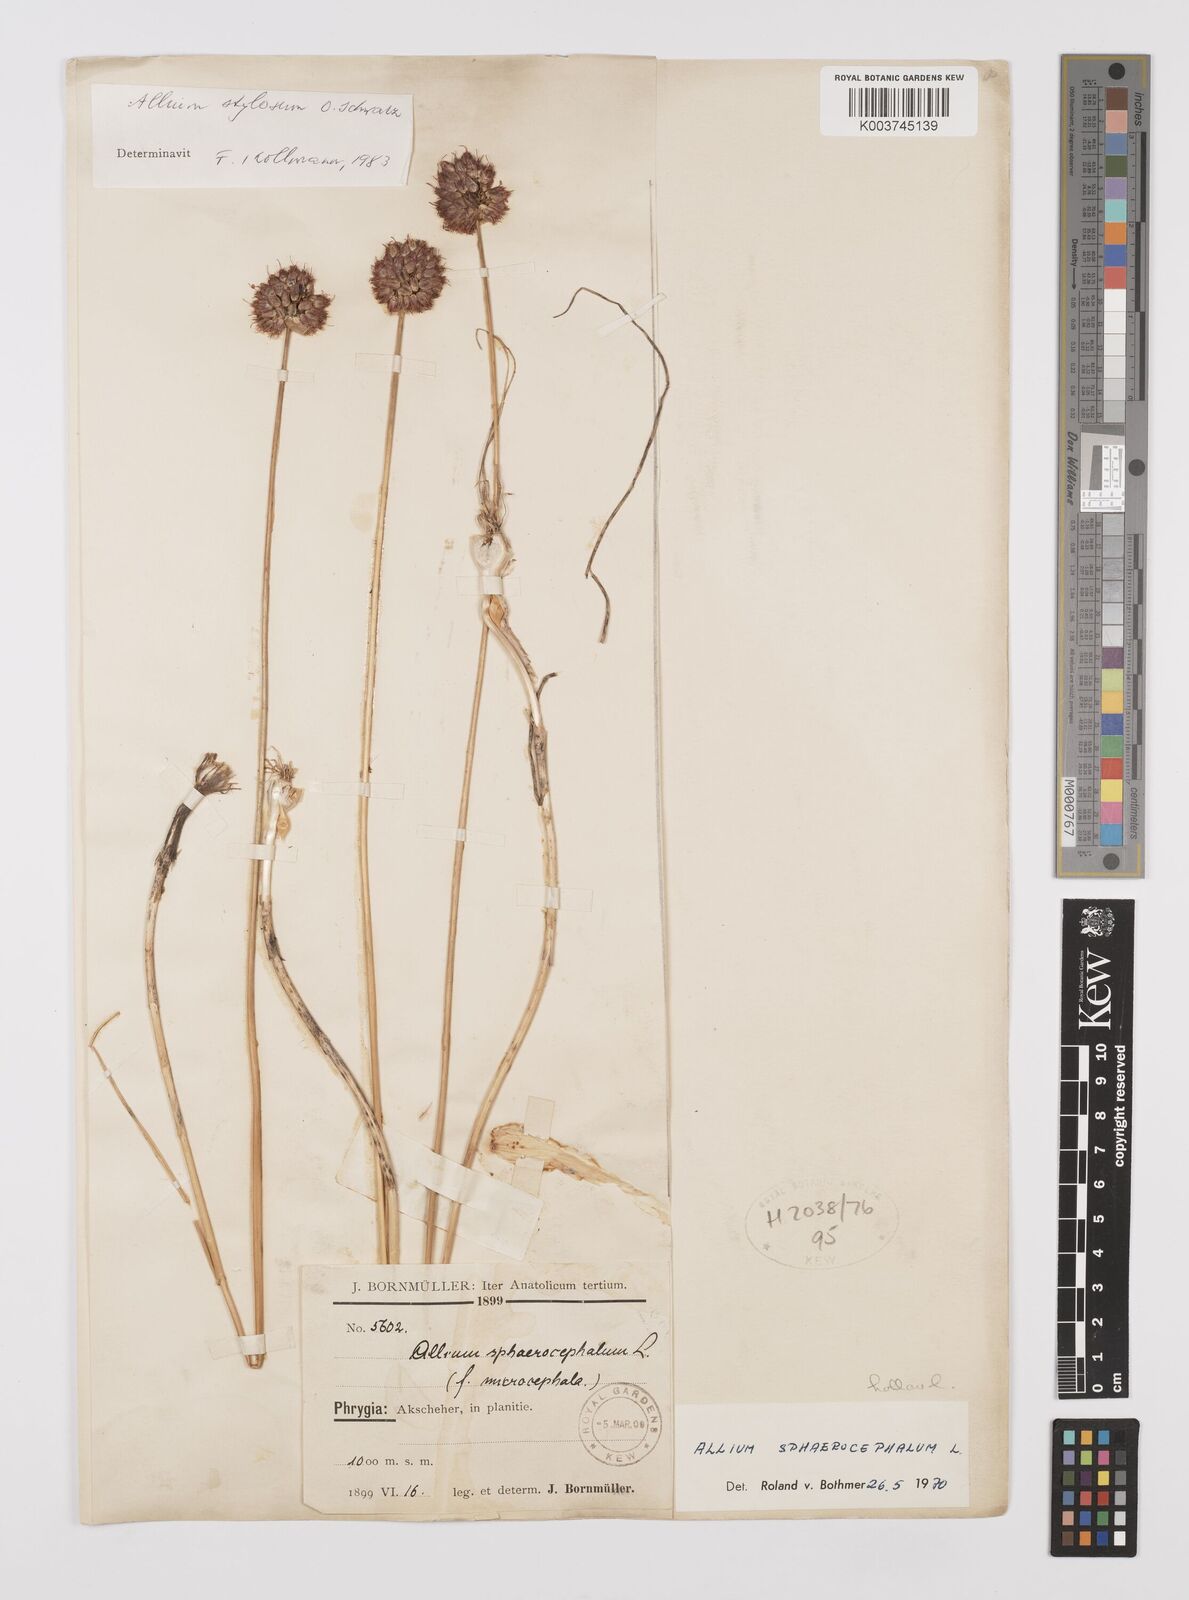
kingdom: Plantae
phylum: Tracheophyta
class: Liliopsida
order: Asparagales
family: Amaryllidaceae
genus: Allium
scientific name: Allium stylosum
